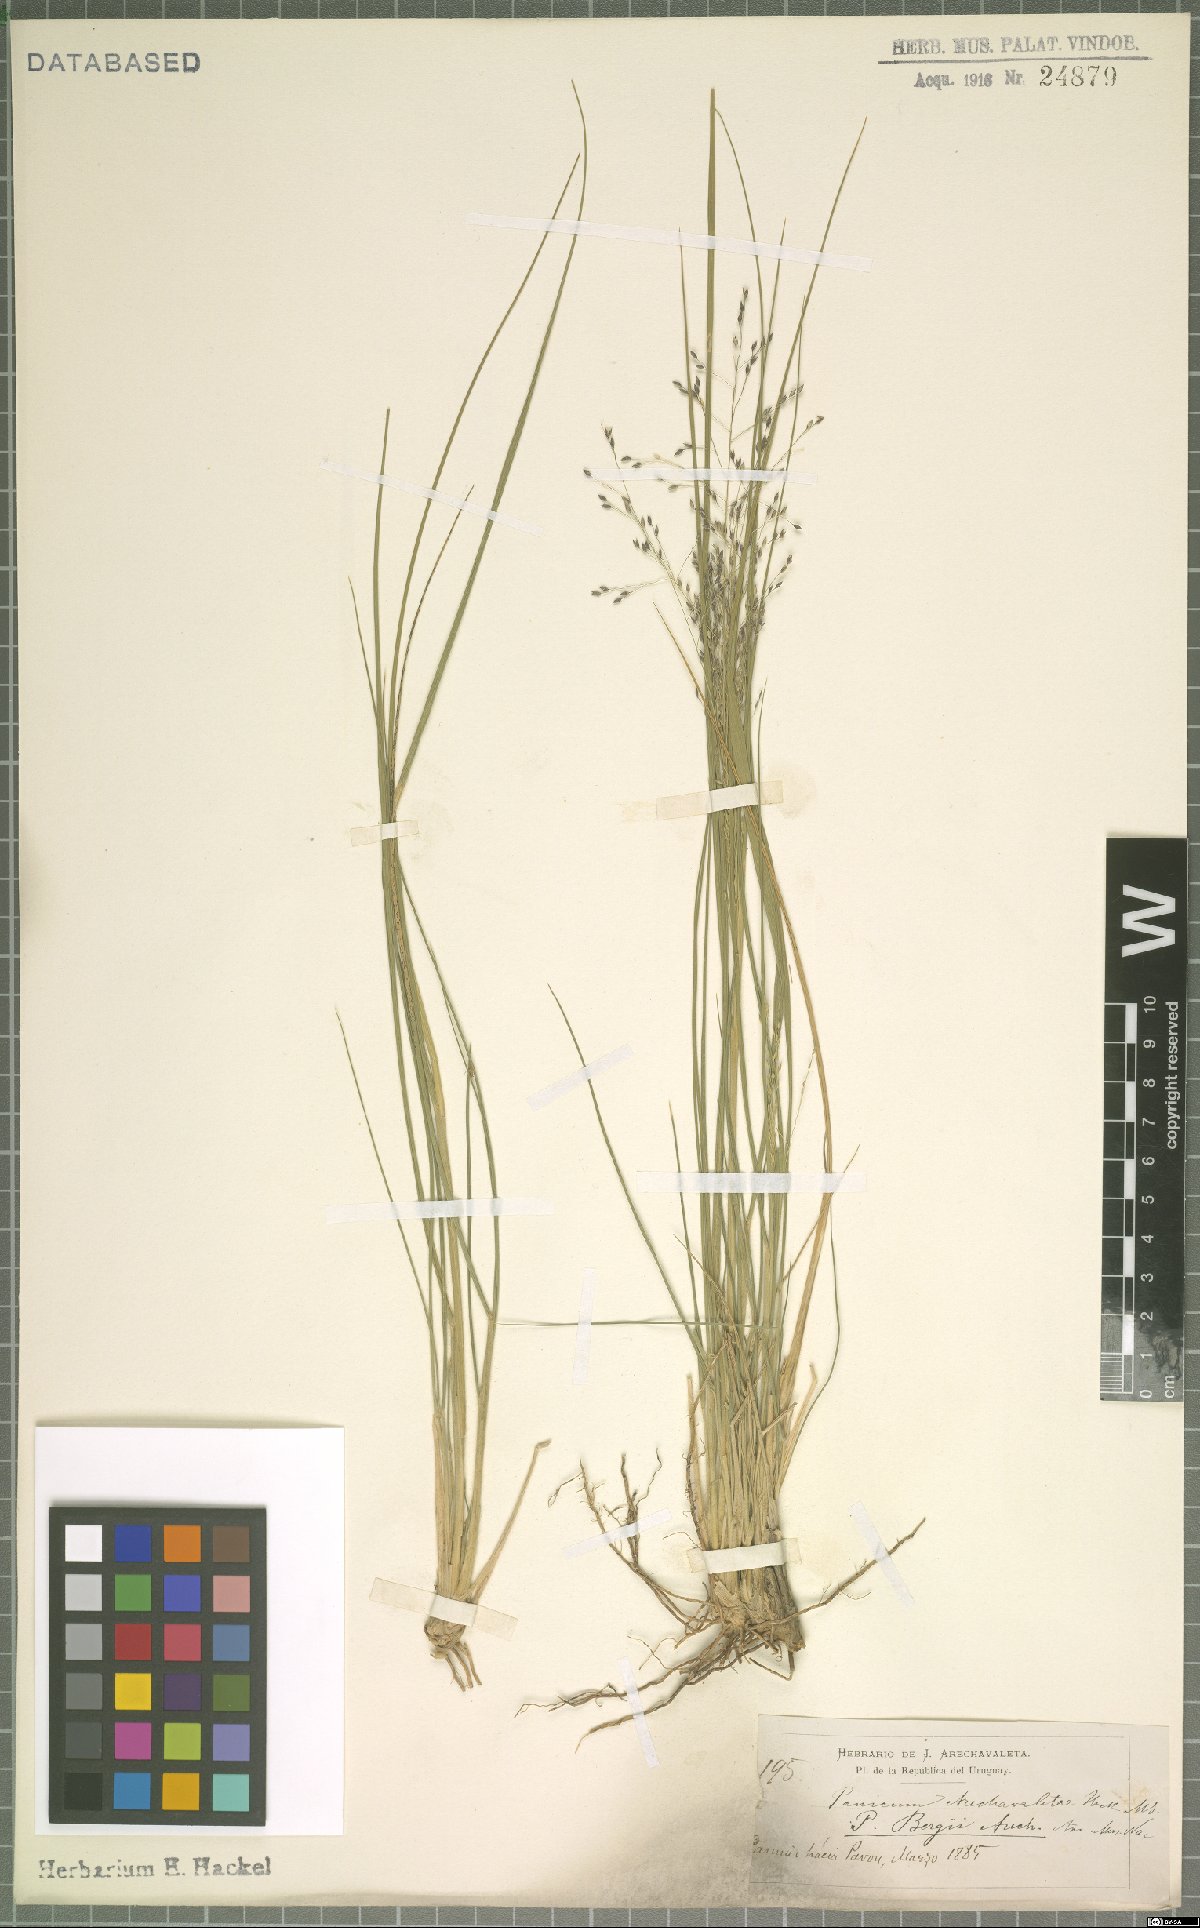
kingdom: Plantae
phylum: Tracheophyta
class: Liliopsida
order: Poales
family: Poaceae
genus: Panicum
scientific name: Panicum bergii
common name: Berg's panicgrass
